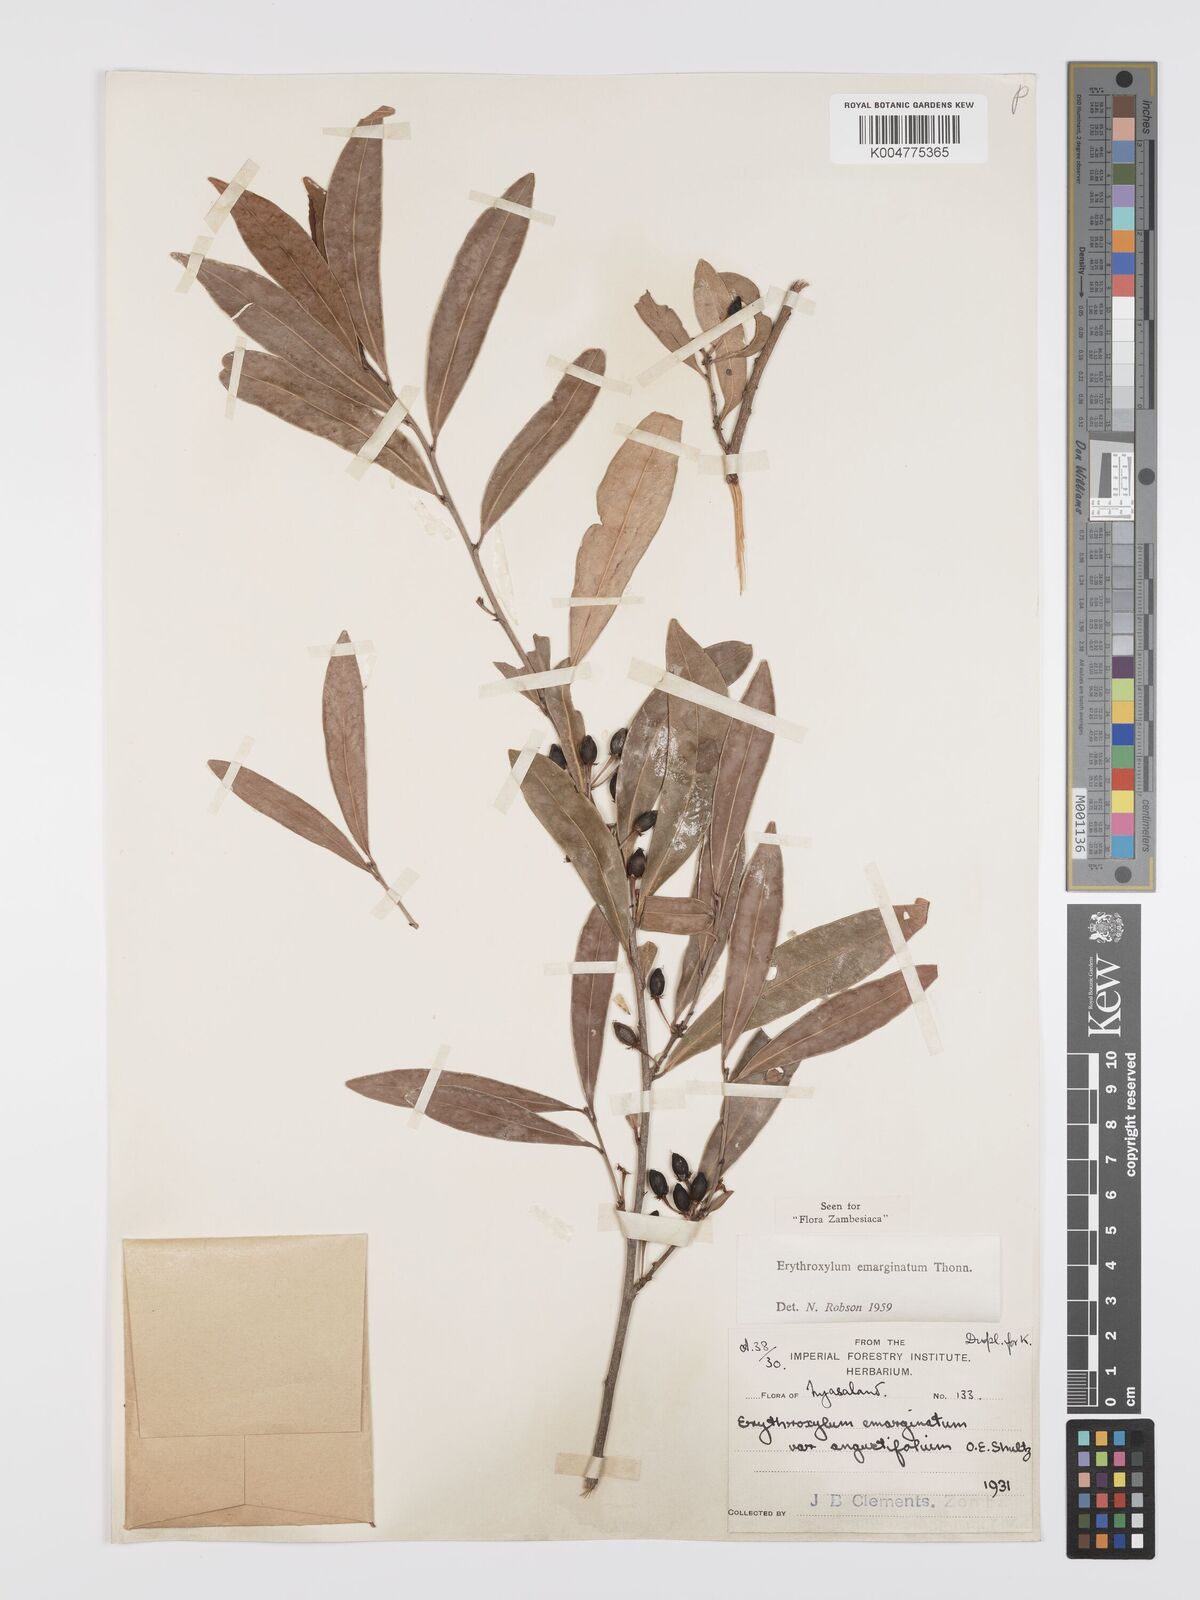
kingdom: Plantae
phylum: Tracheophyta
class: Magnoliopsida
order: Malpighiales
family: Erythroxylaceae
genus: Erythroxylum
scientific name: Erythroxylum emarginatum
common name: African coca-tree
